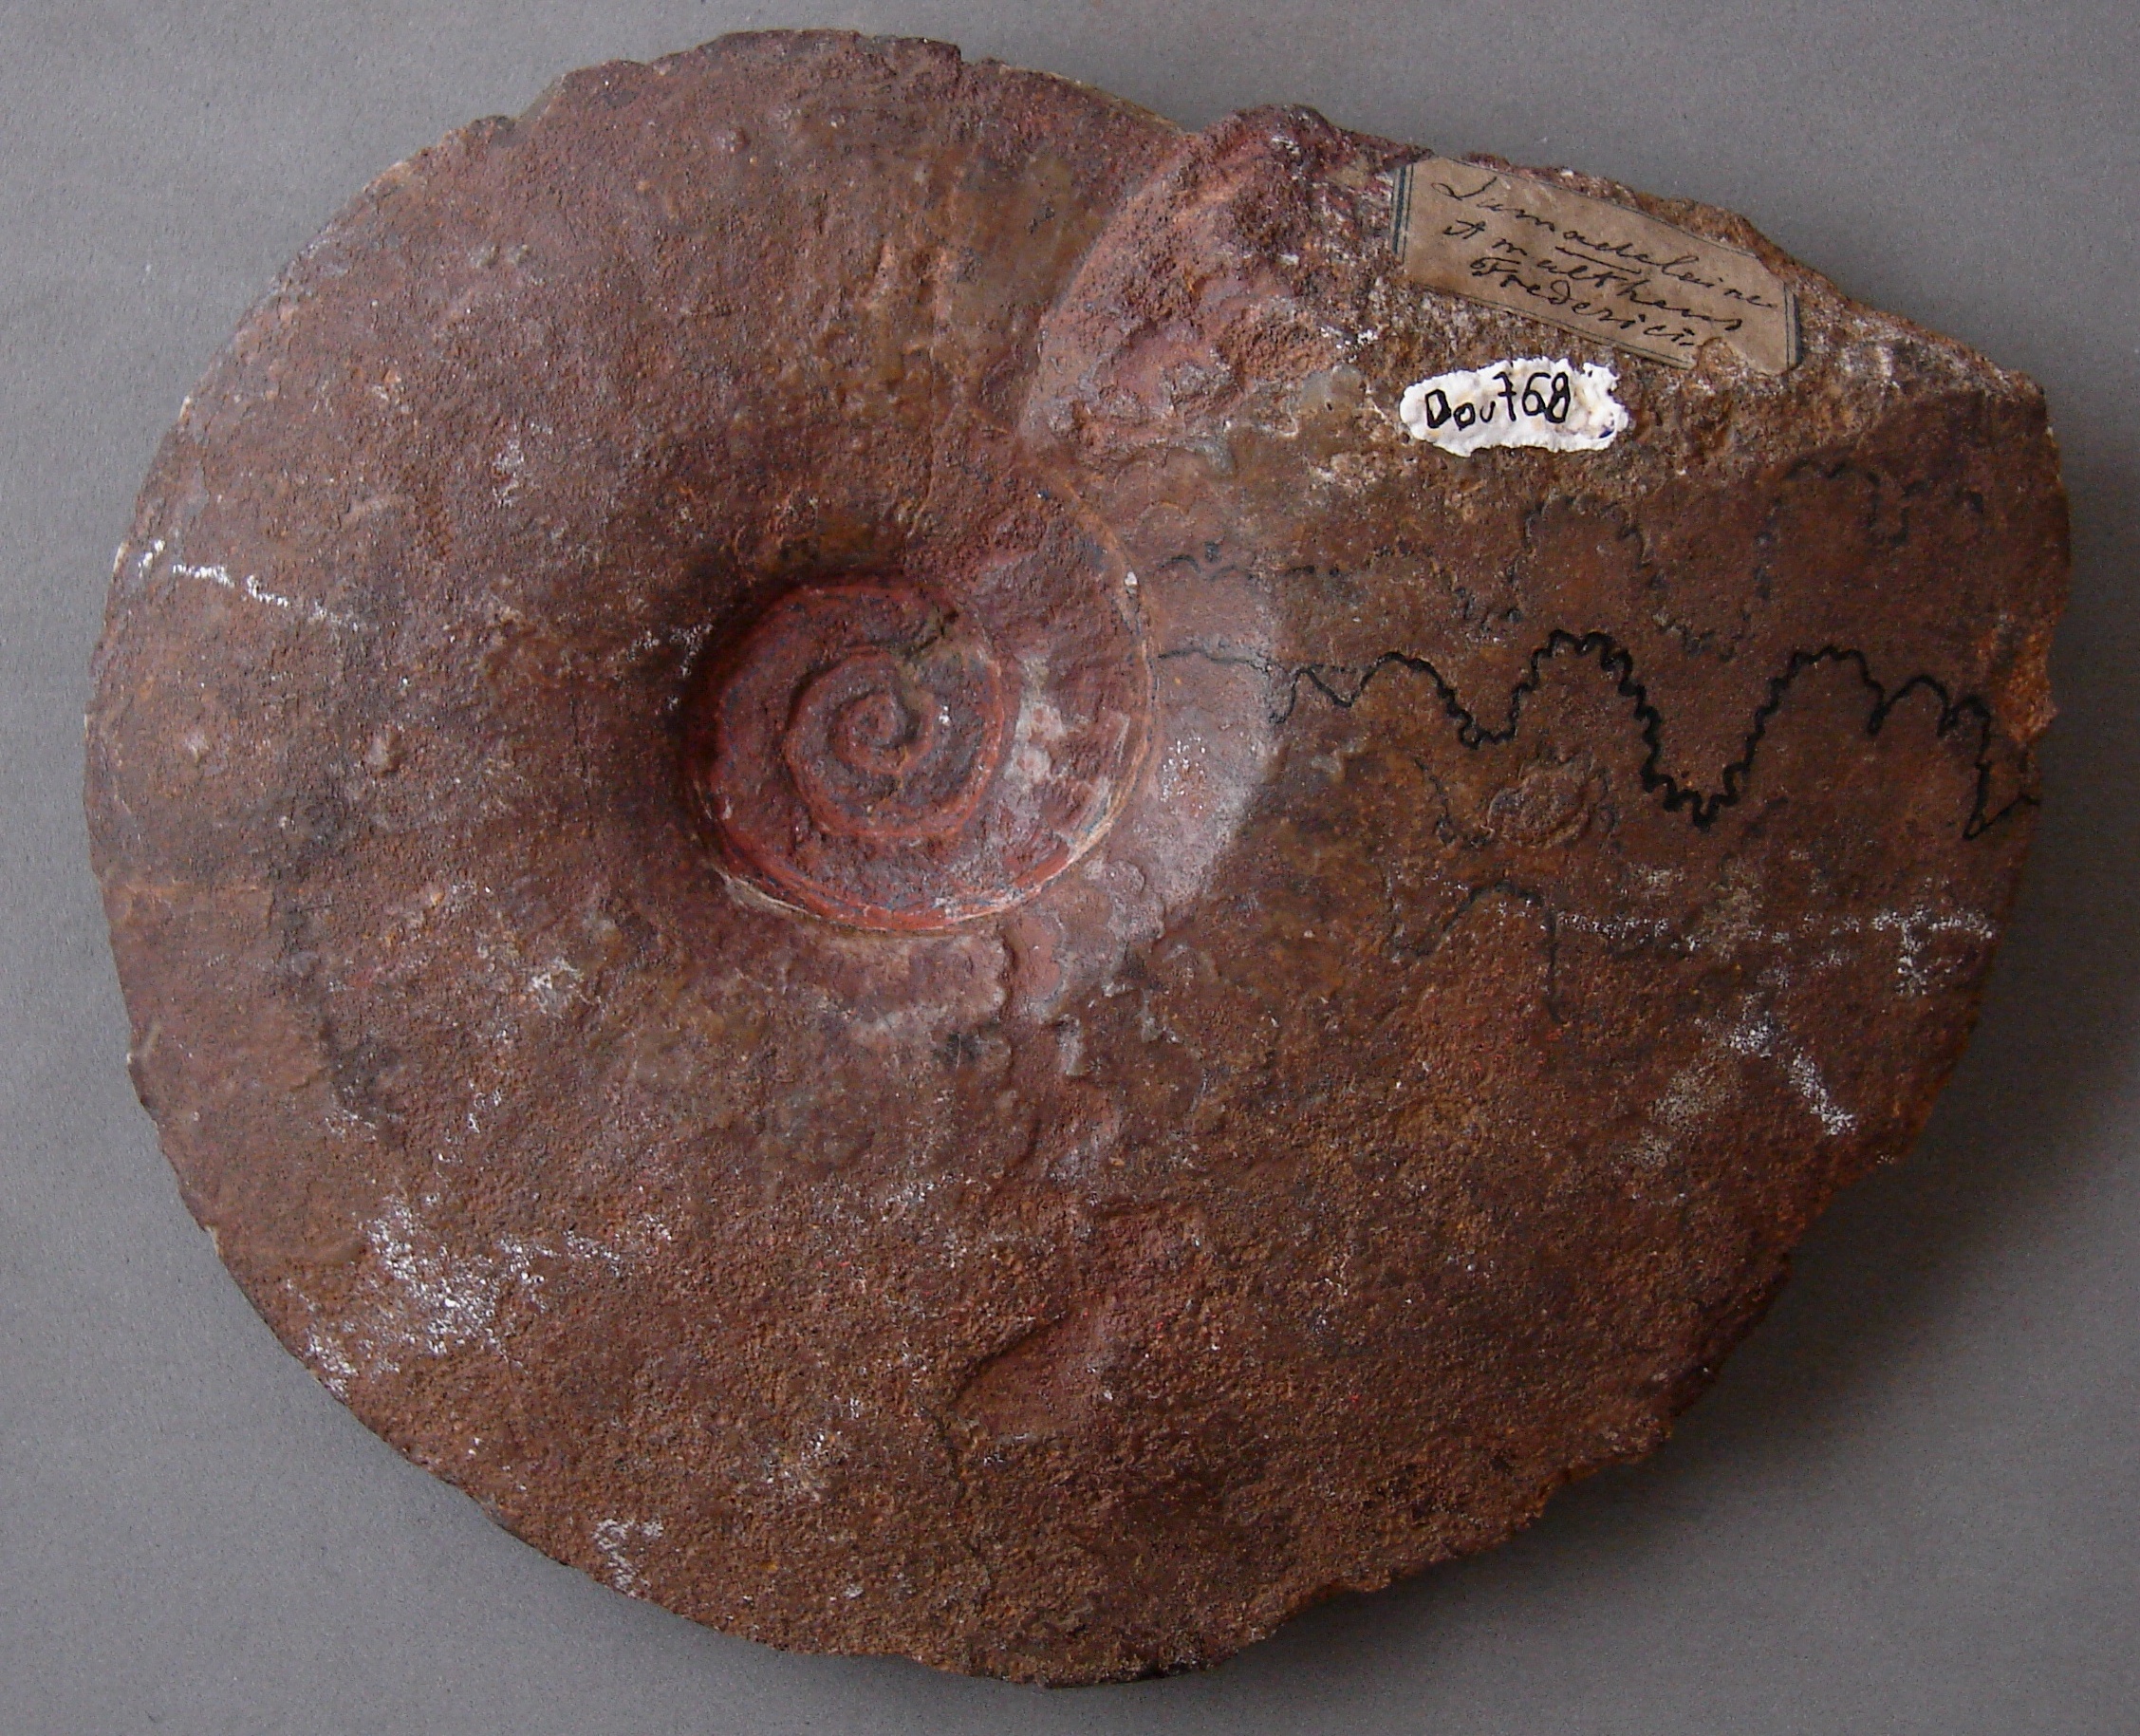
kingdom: Protozoa
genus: Huddlestonia
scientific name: Huddlestonia
